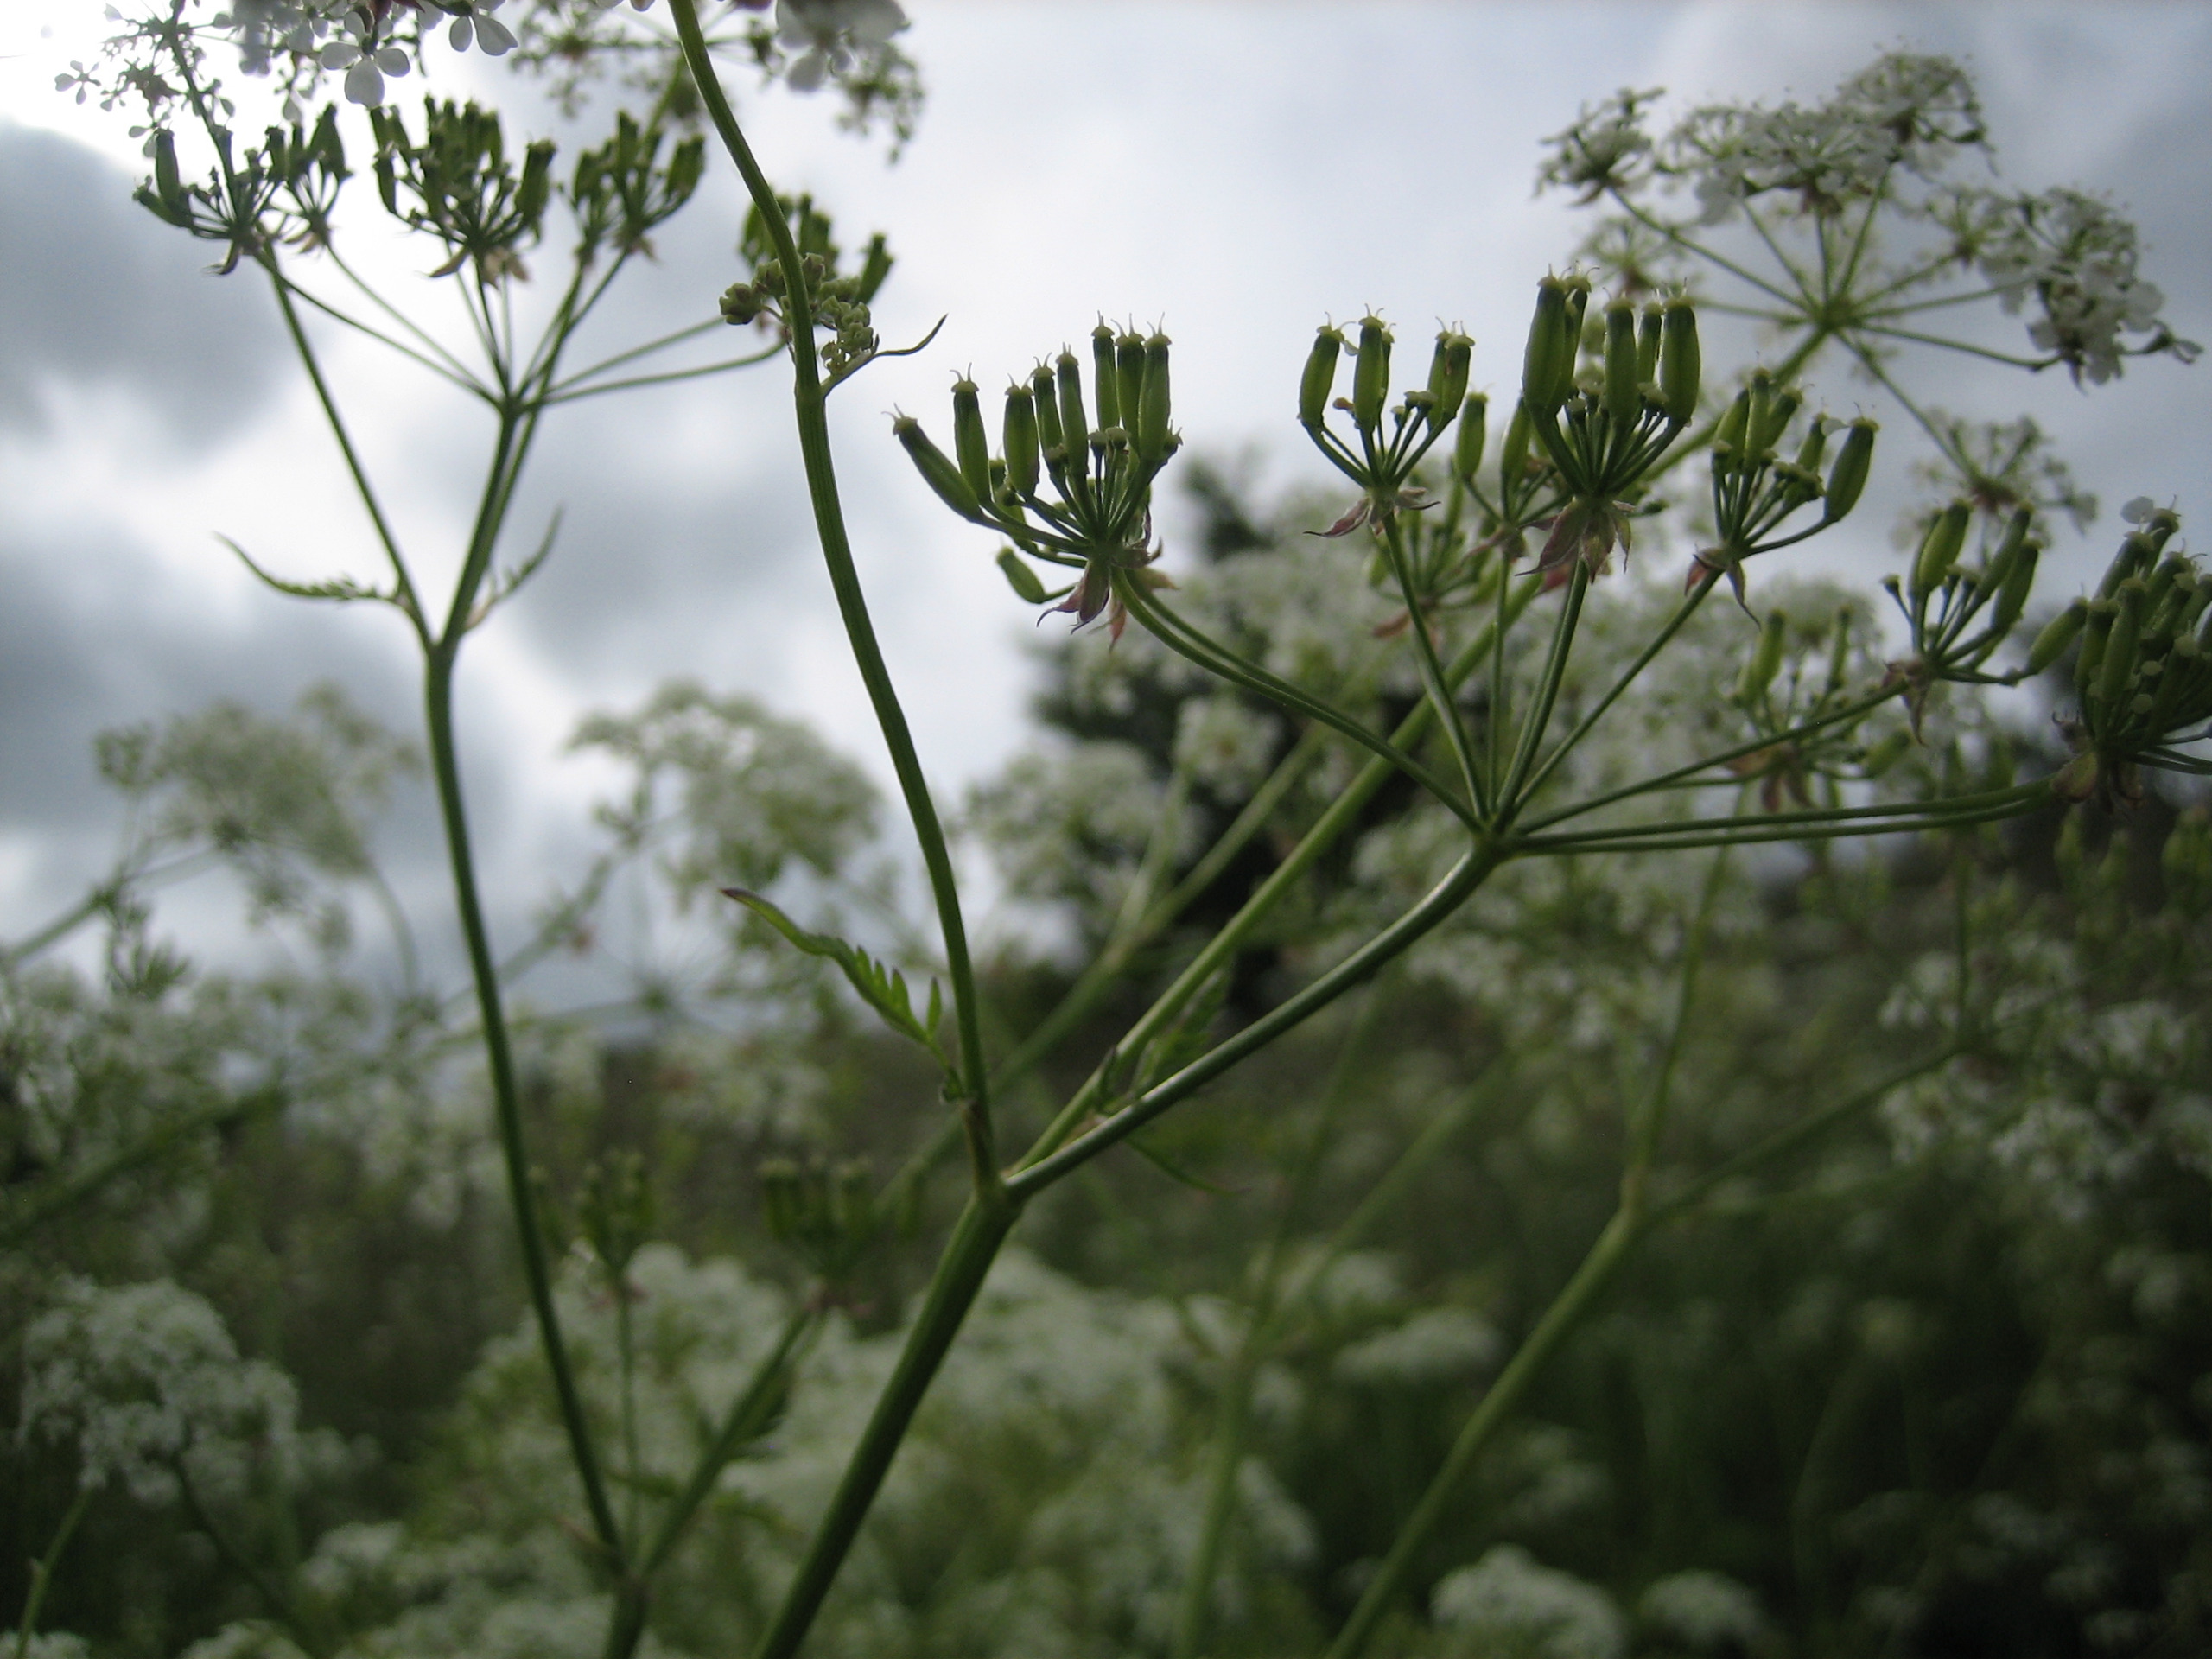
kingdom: Plantae
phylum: Tracheophyta
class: Magnoliopsida
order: Apiales
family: Apiaceae
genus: Anthriscus
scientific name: Anthriscus sylvestris
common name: Vild kørvel
